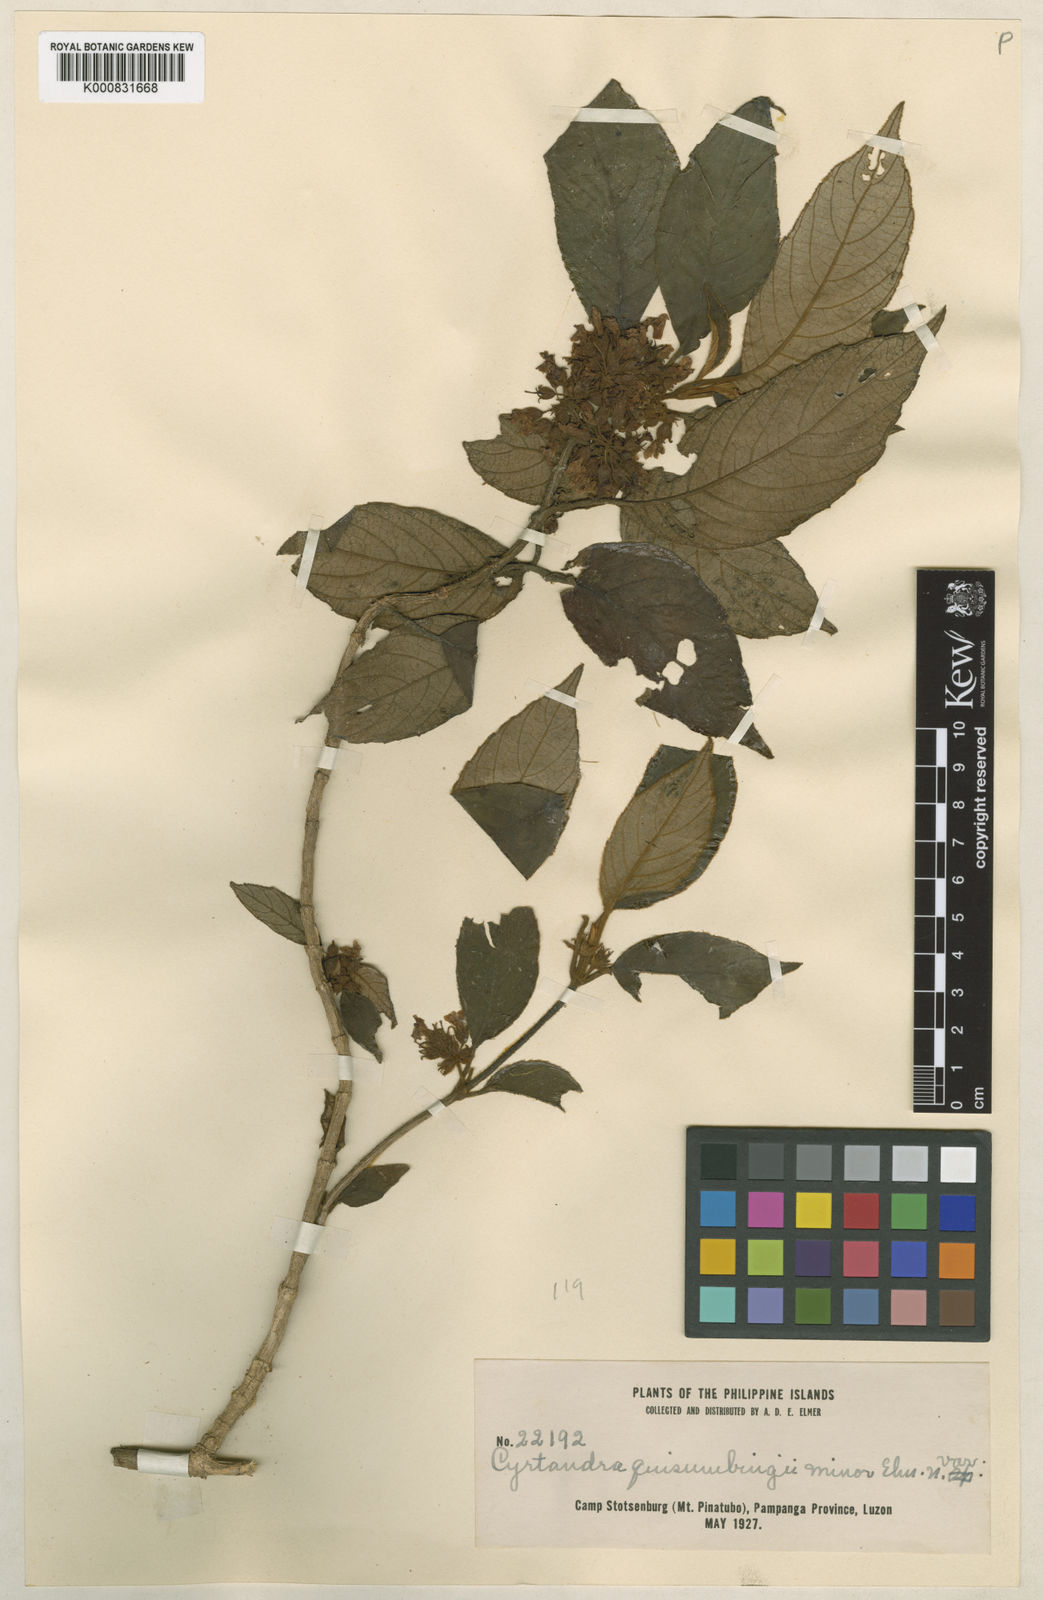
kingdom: Plantae
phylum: Tracheophyta
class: Magnoliopsida
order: Lamiales
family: Gesneriaceae
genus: Cyrtandra
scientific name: Cyrtandra quisumbingii
